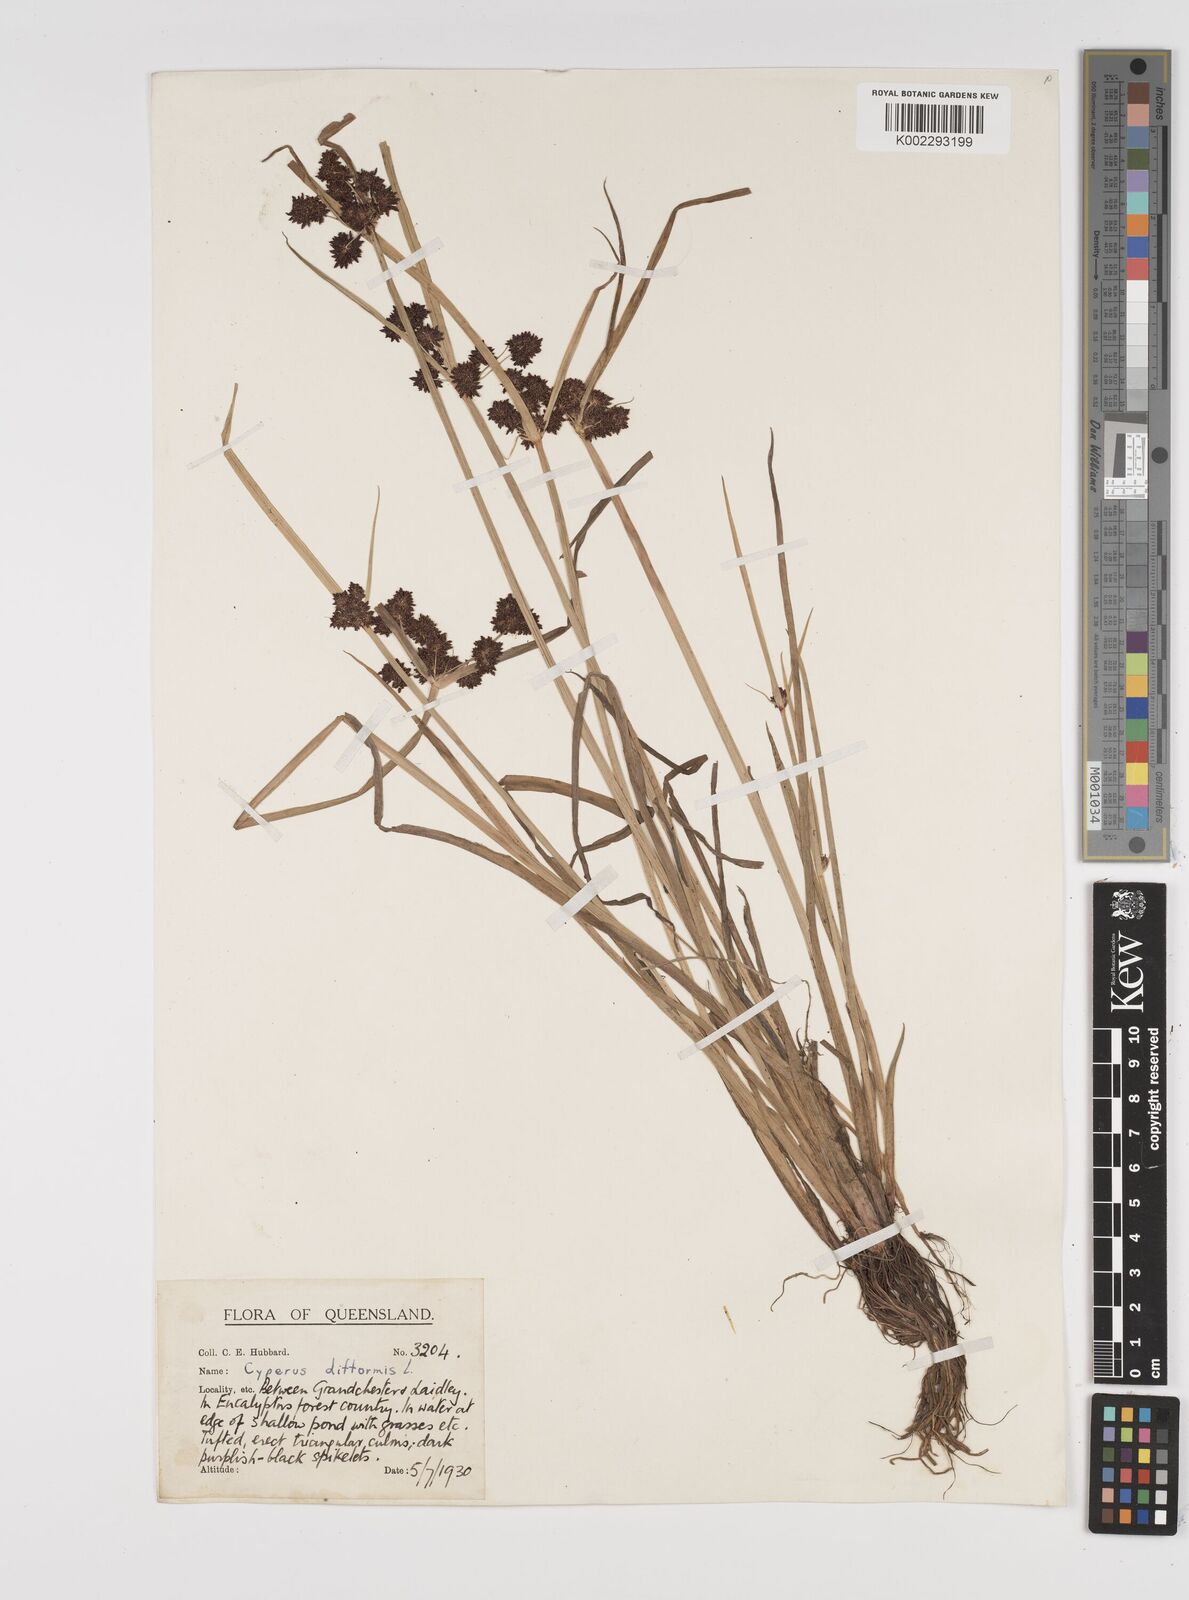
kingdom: Plantae
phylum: Tracheophyta
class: Liliopsida
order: Poales
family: Cyperaceae
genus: Cyperus
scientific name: Cyperus difformis
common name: Variable flatsedge
